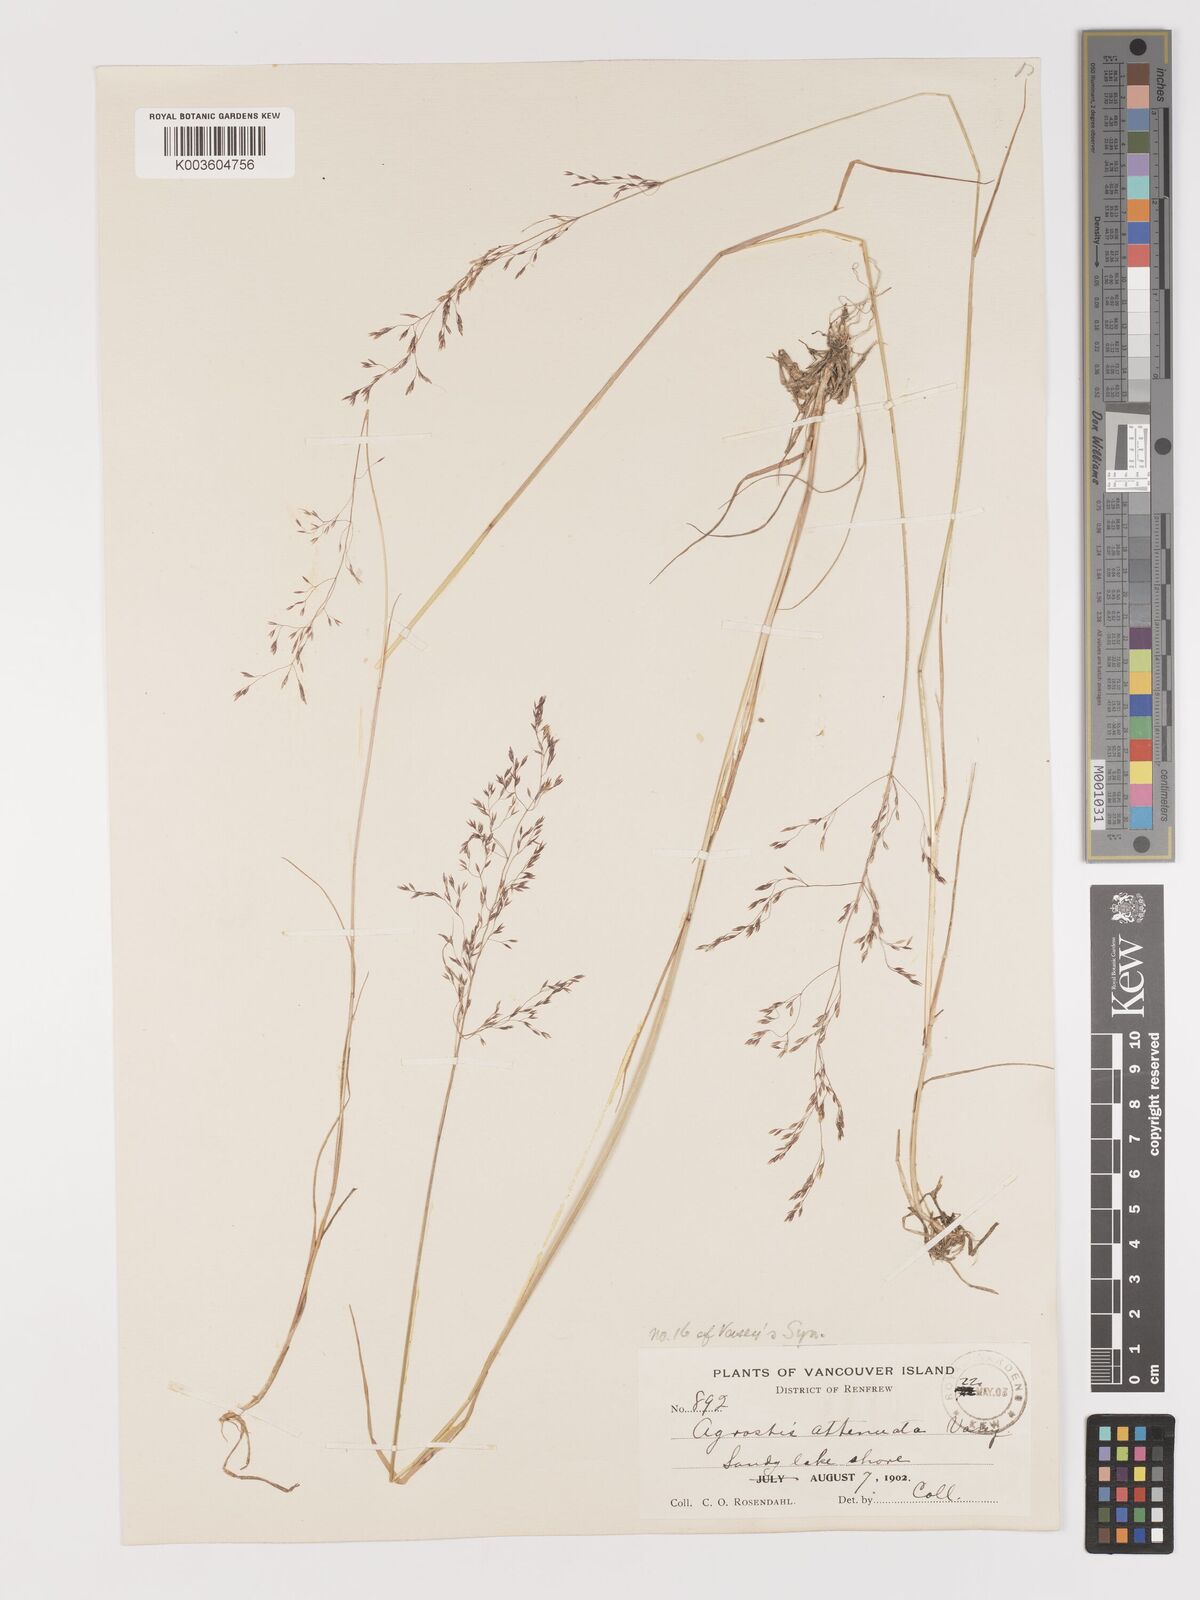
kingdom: Plantae
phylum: Tracheophyta
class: Liliopsida
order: Poales
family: Poaceae
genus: Agrostis
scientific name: Agrostis oregonensis
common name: Oregon bent
